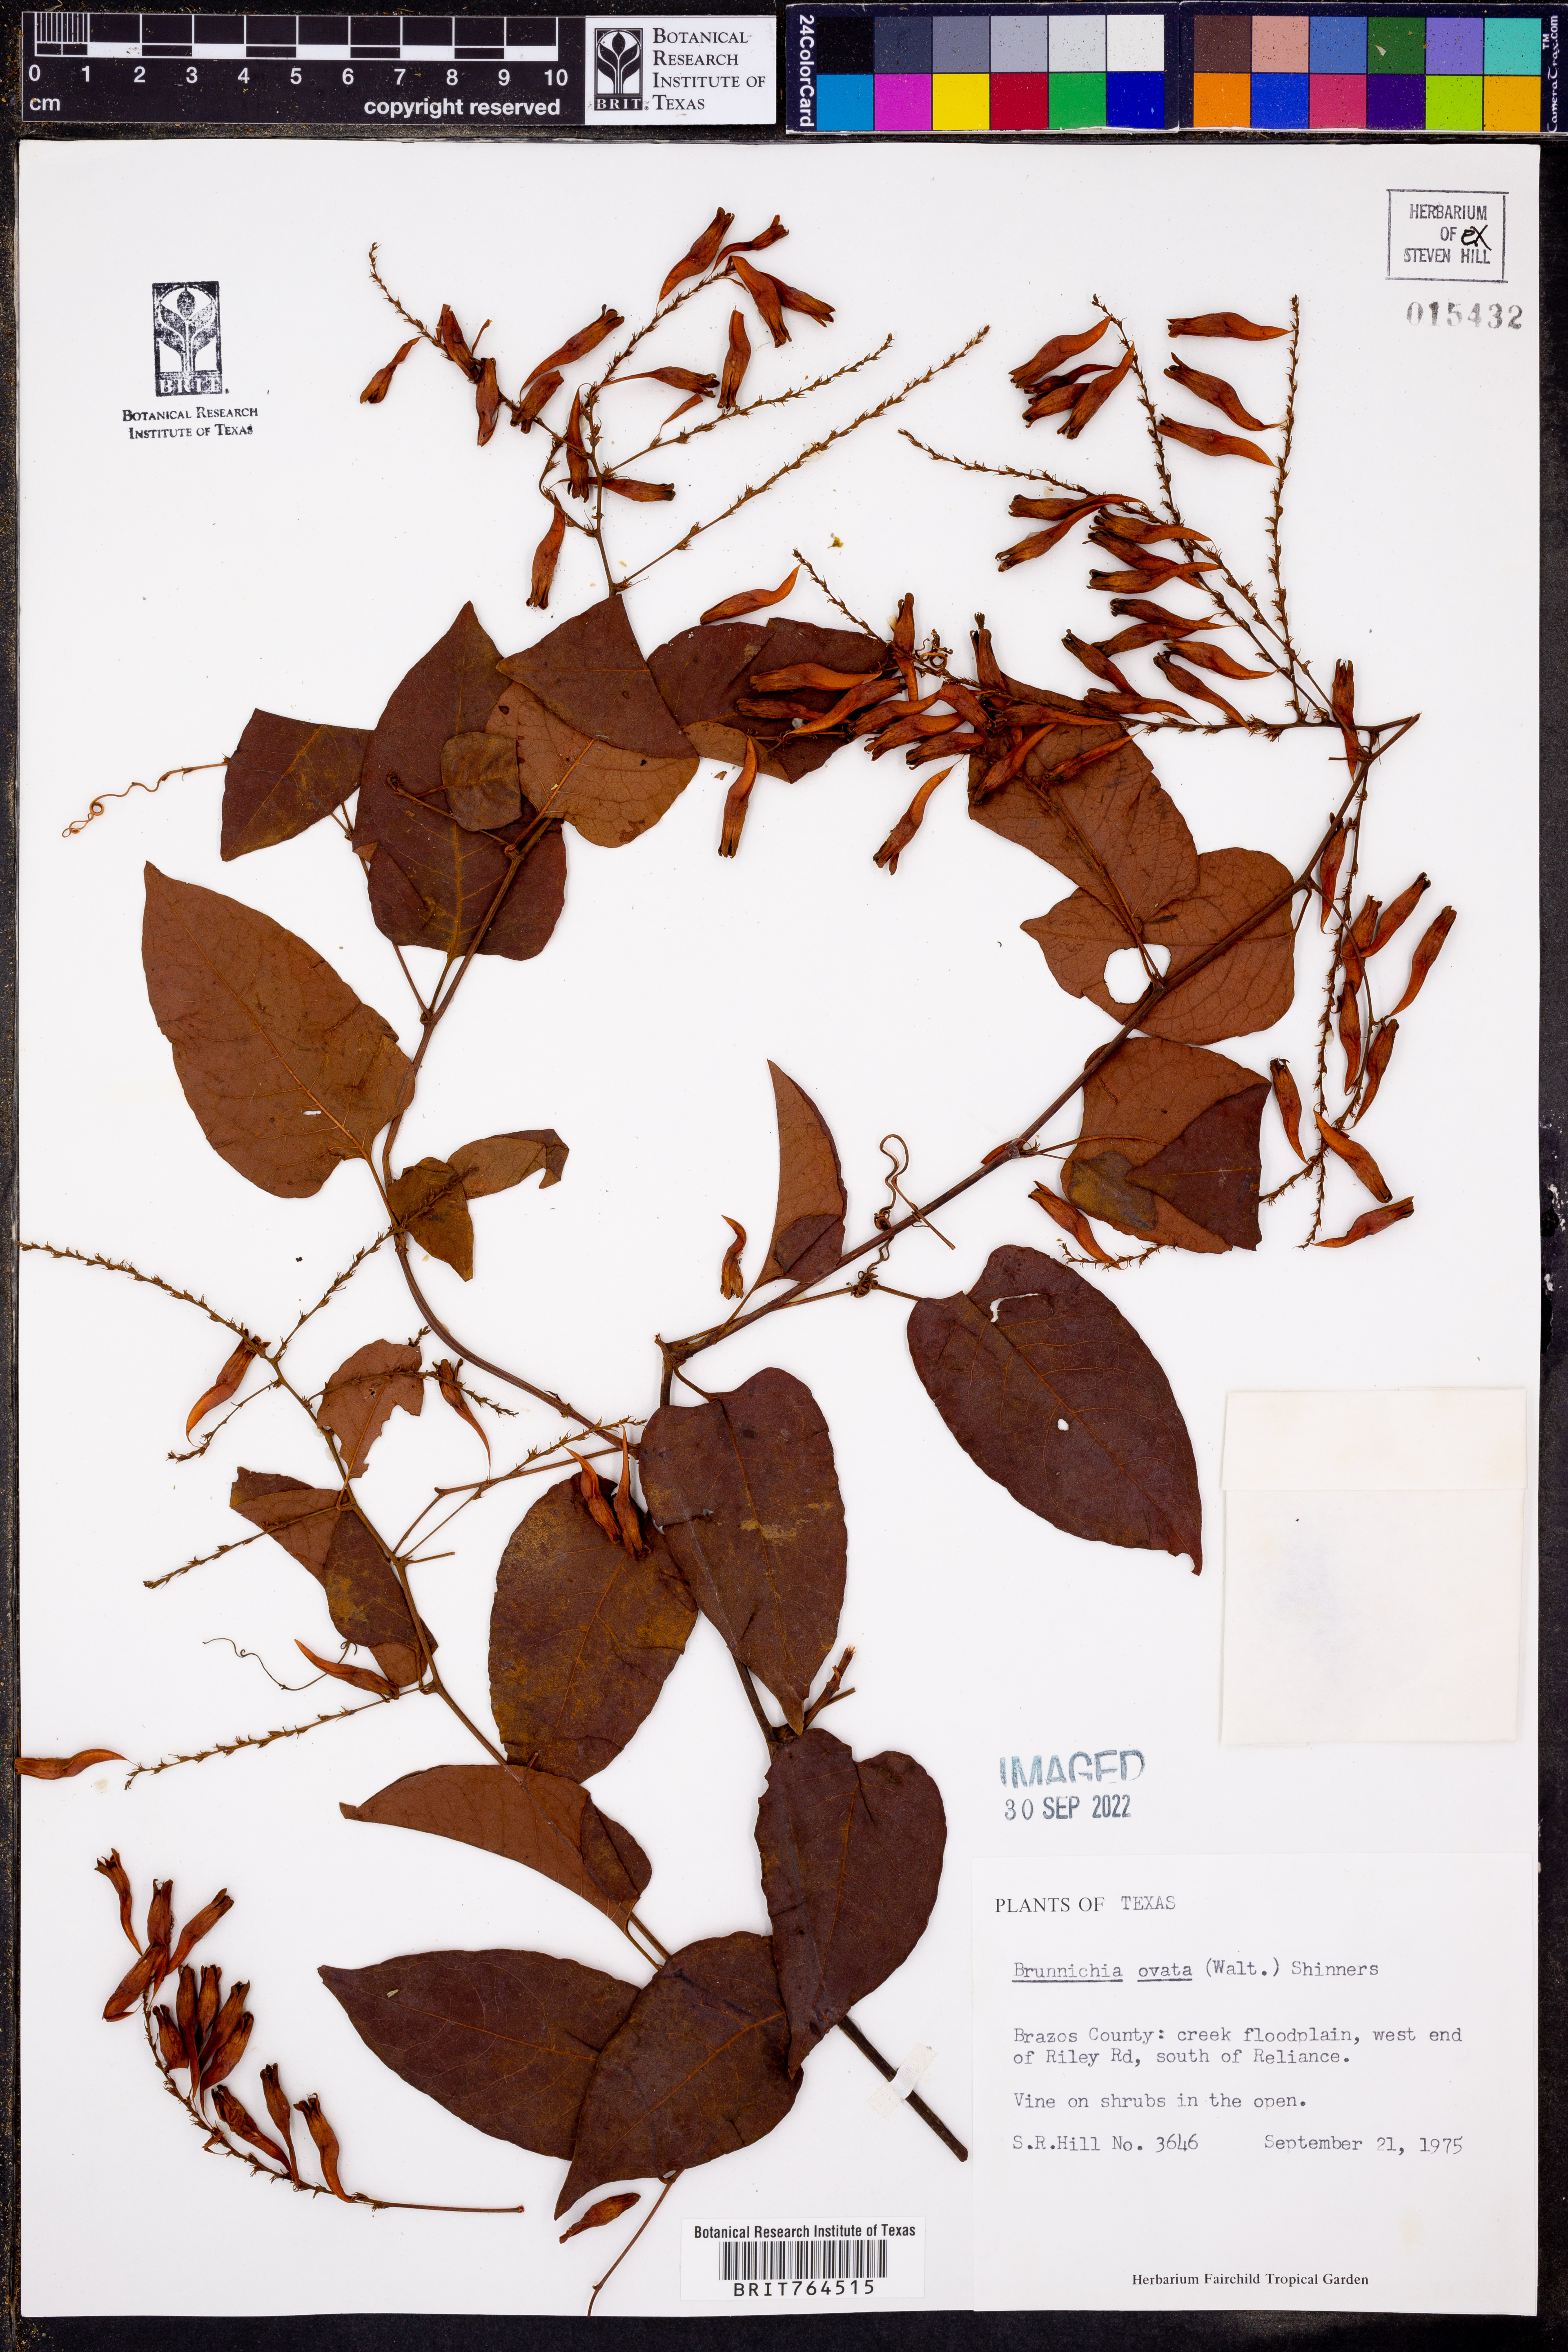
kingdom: Plantae
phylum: Tracheophyta
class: Magnoliopsida
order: Caryophyllales
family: Polygonaceae
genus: Brunnichia
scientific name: Brunnichia ovata
